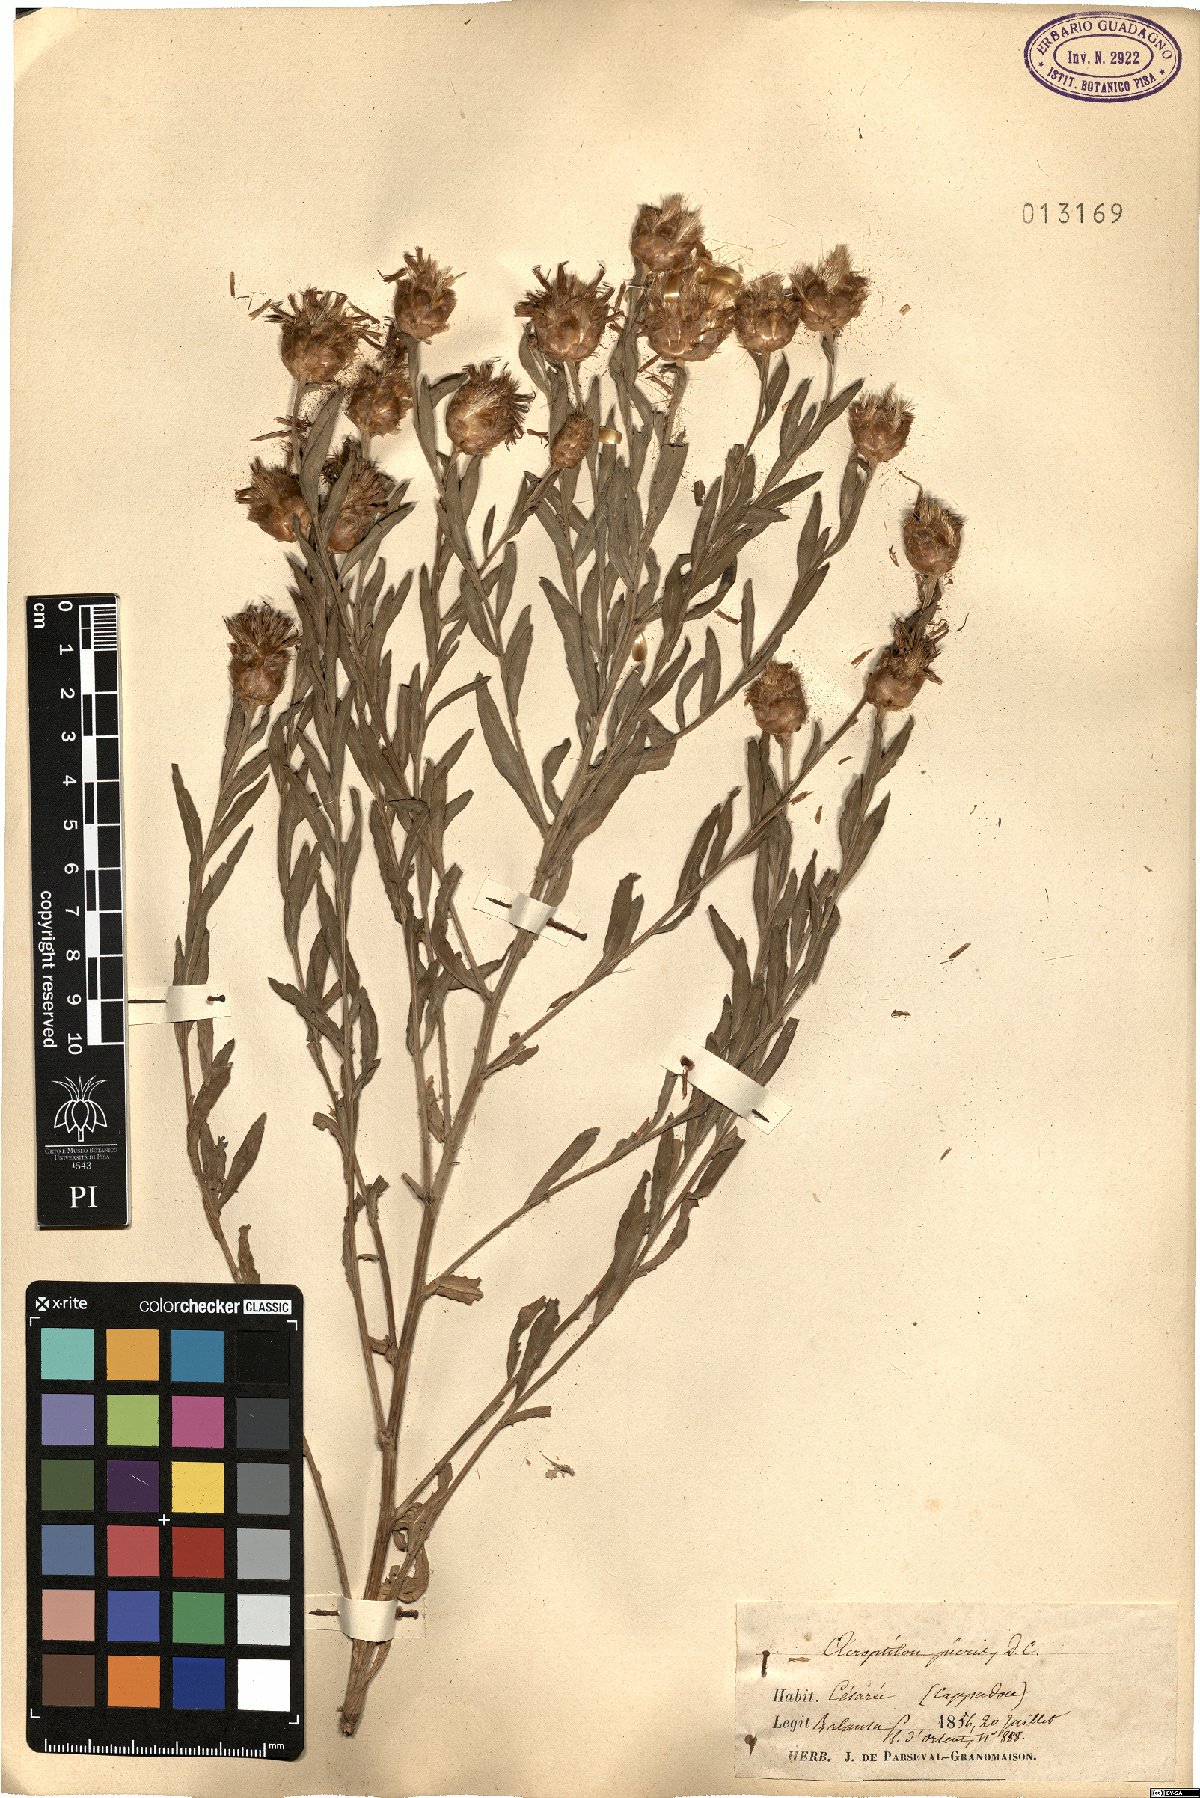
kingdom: Plantae
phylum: Tracheophyta
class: Magnoliopsida
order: Asterales
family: Asteraceae
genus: Leuzea
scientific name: Leuzea repens
